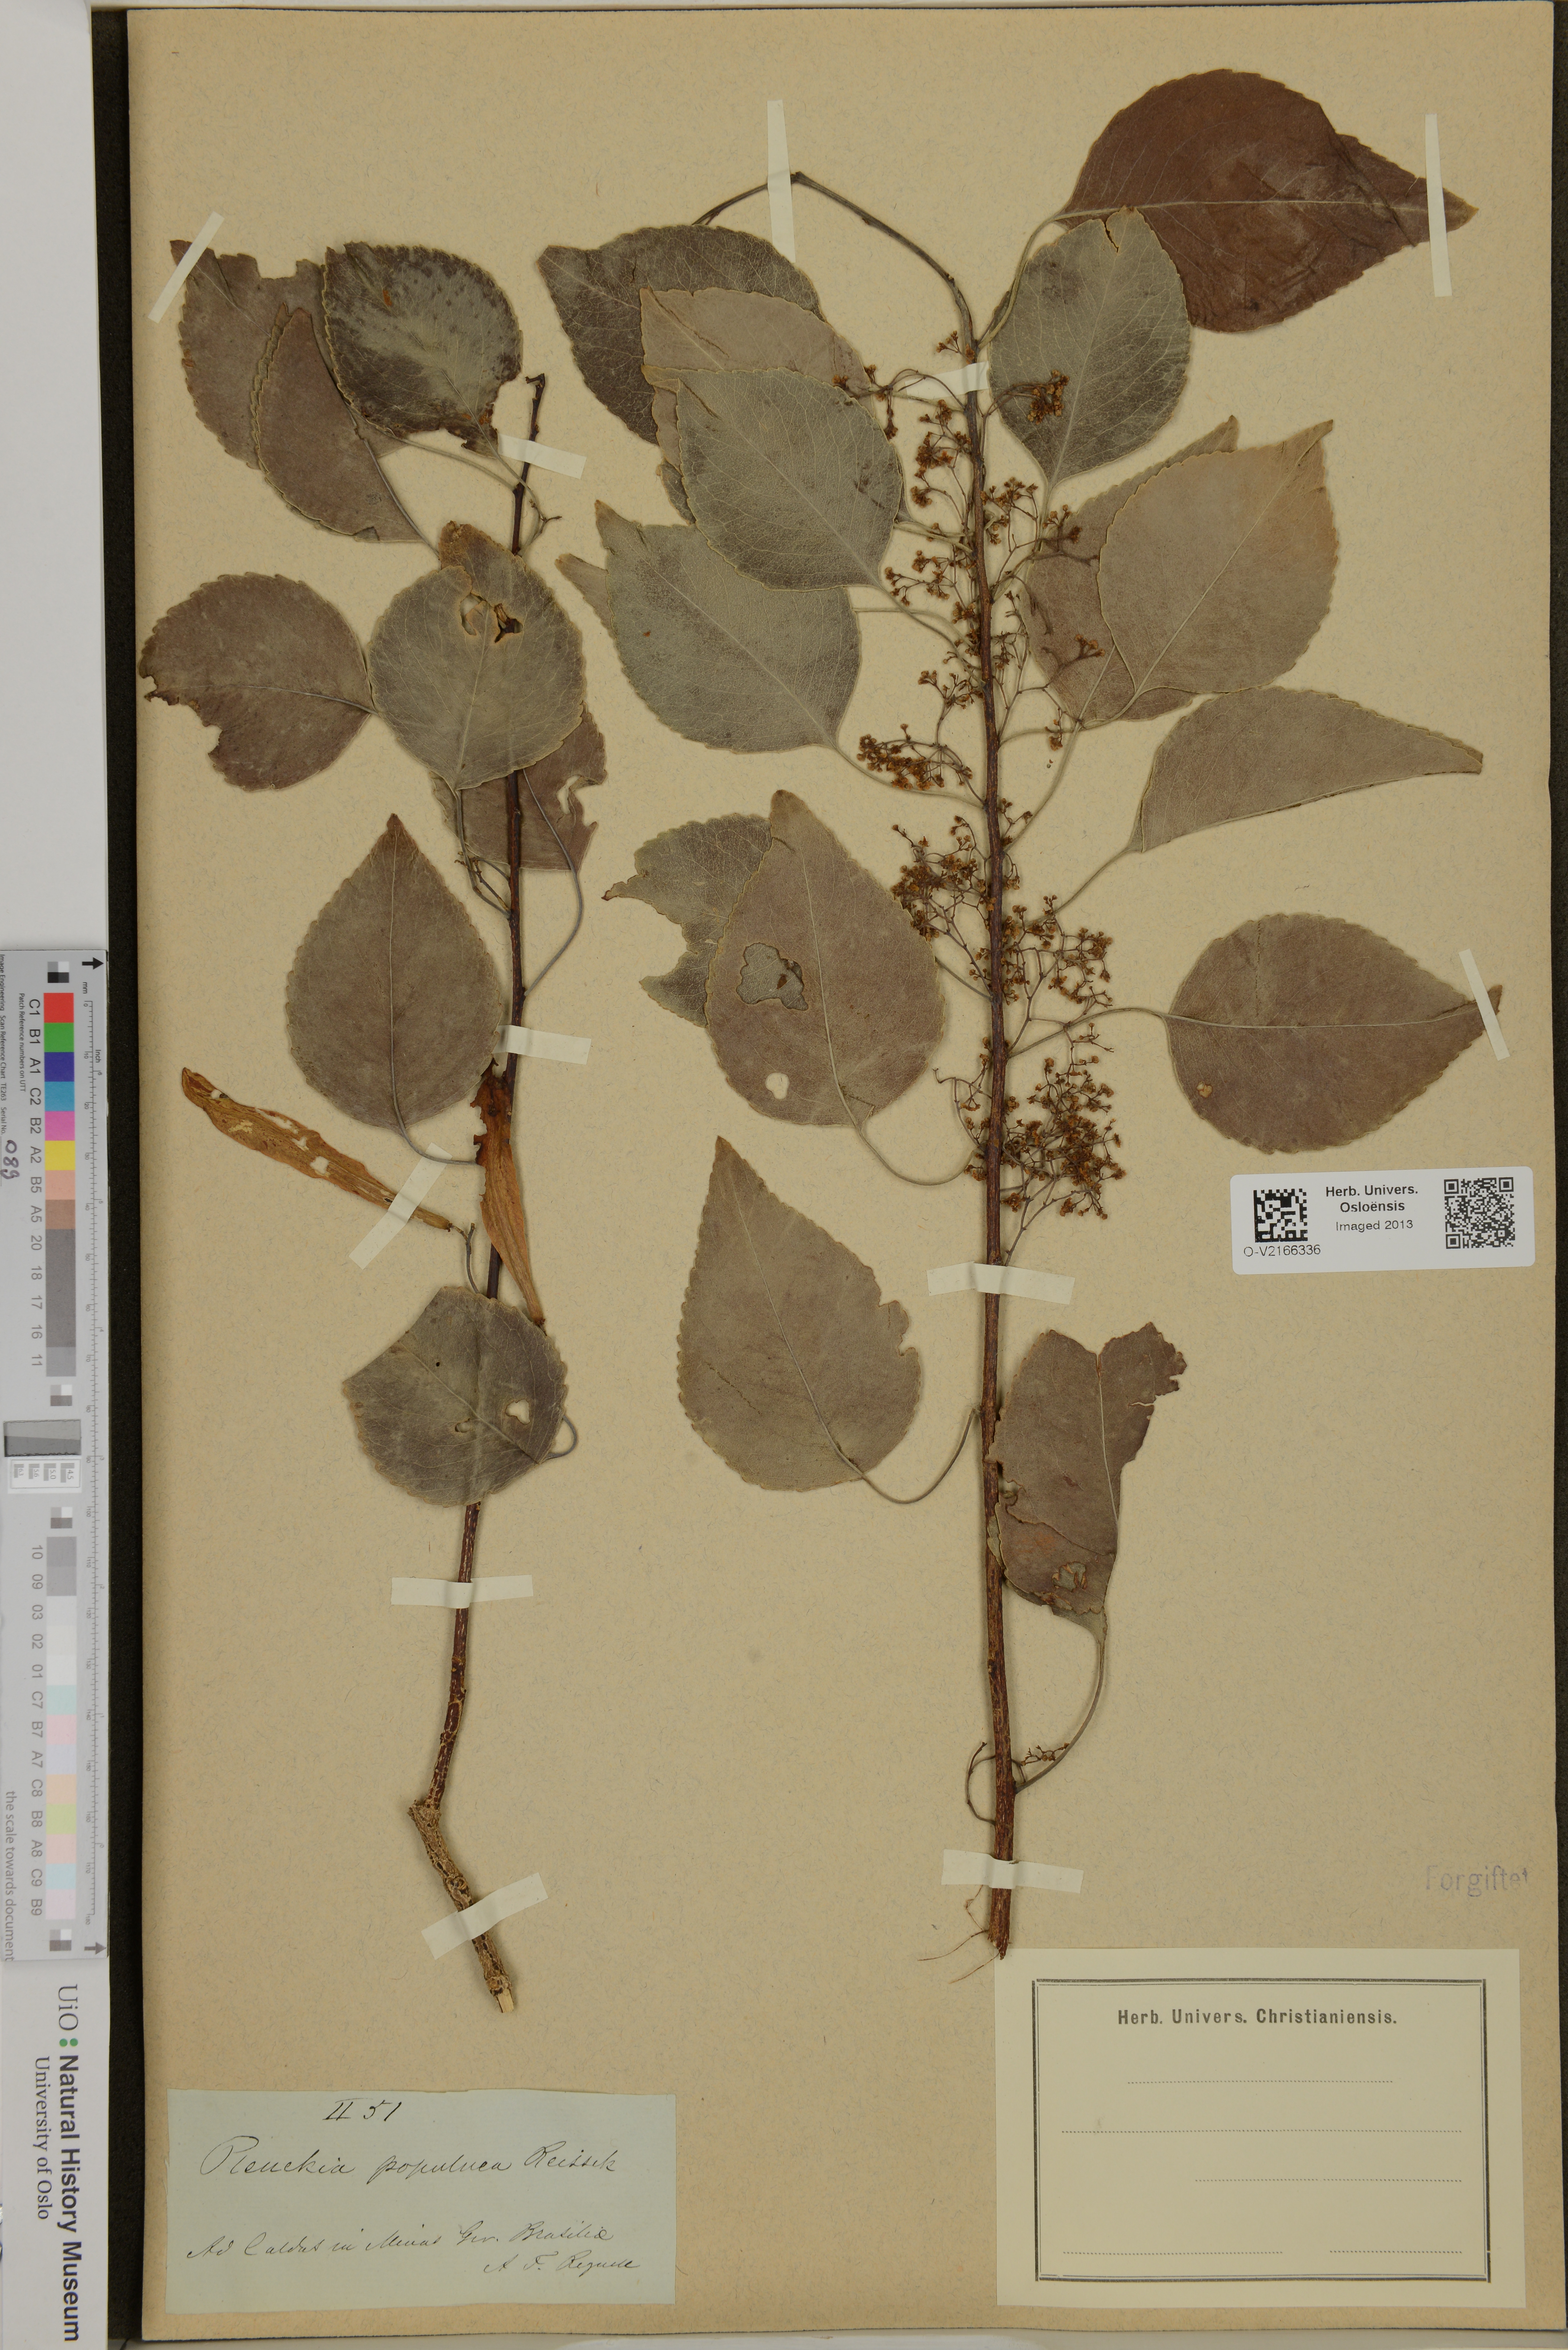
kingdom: Plantae
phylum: Tracheophyta
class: Magnoliopsida
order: Celastrales
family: Celastraceae
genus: Plenckia
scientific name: Plenckia populnea
